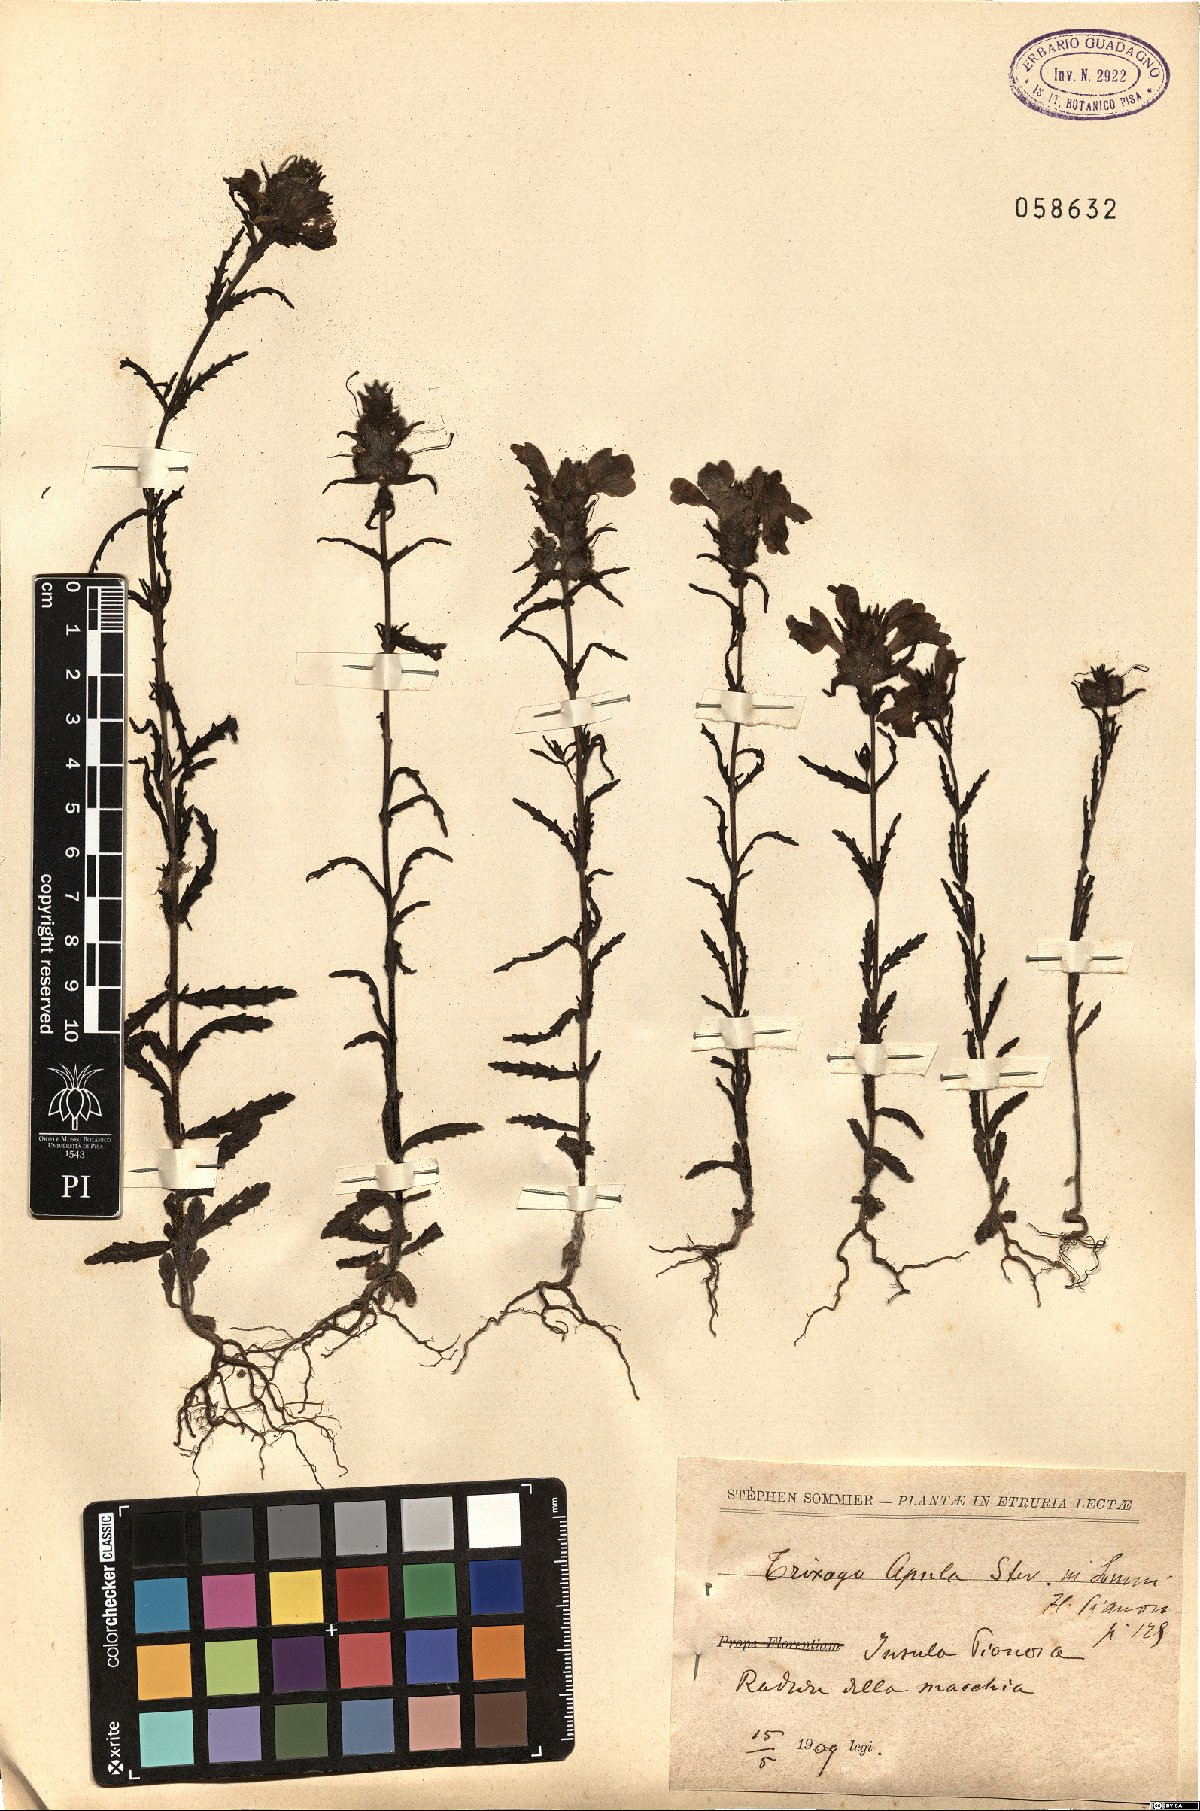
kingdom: Plantae
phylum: Tracheophyta
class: Magnoliopsida
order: Lamiales
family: Orobanchaceae
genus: Bellardia
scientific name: Bellardia trixago
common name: Mediterranean lineseed
